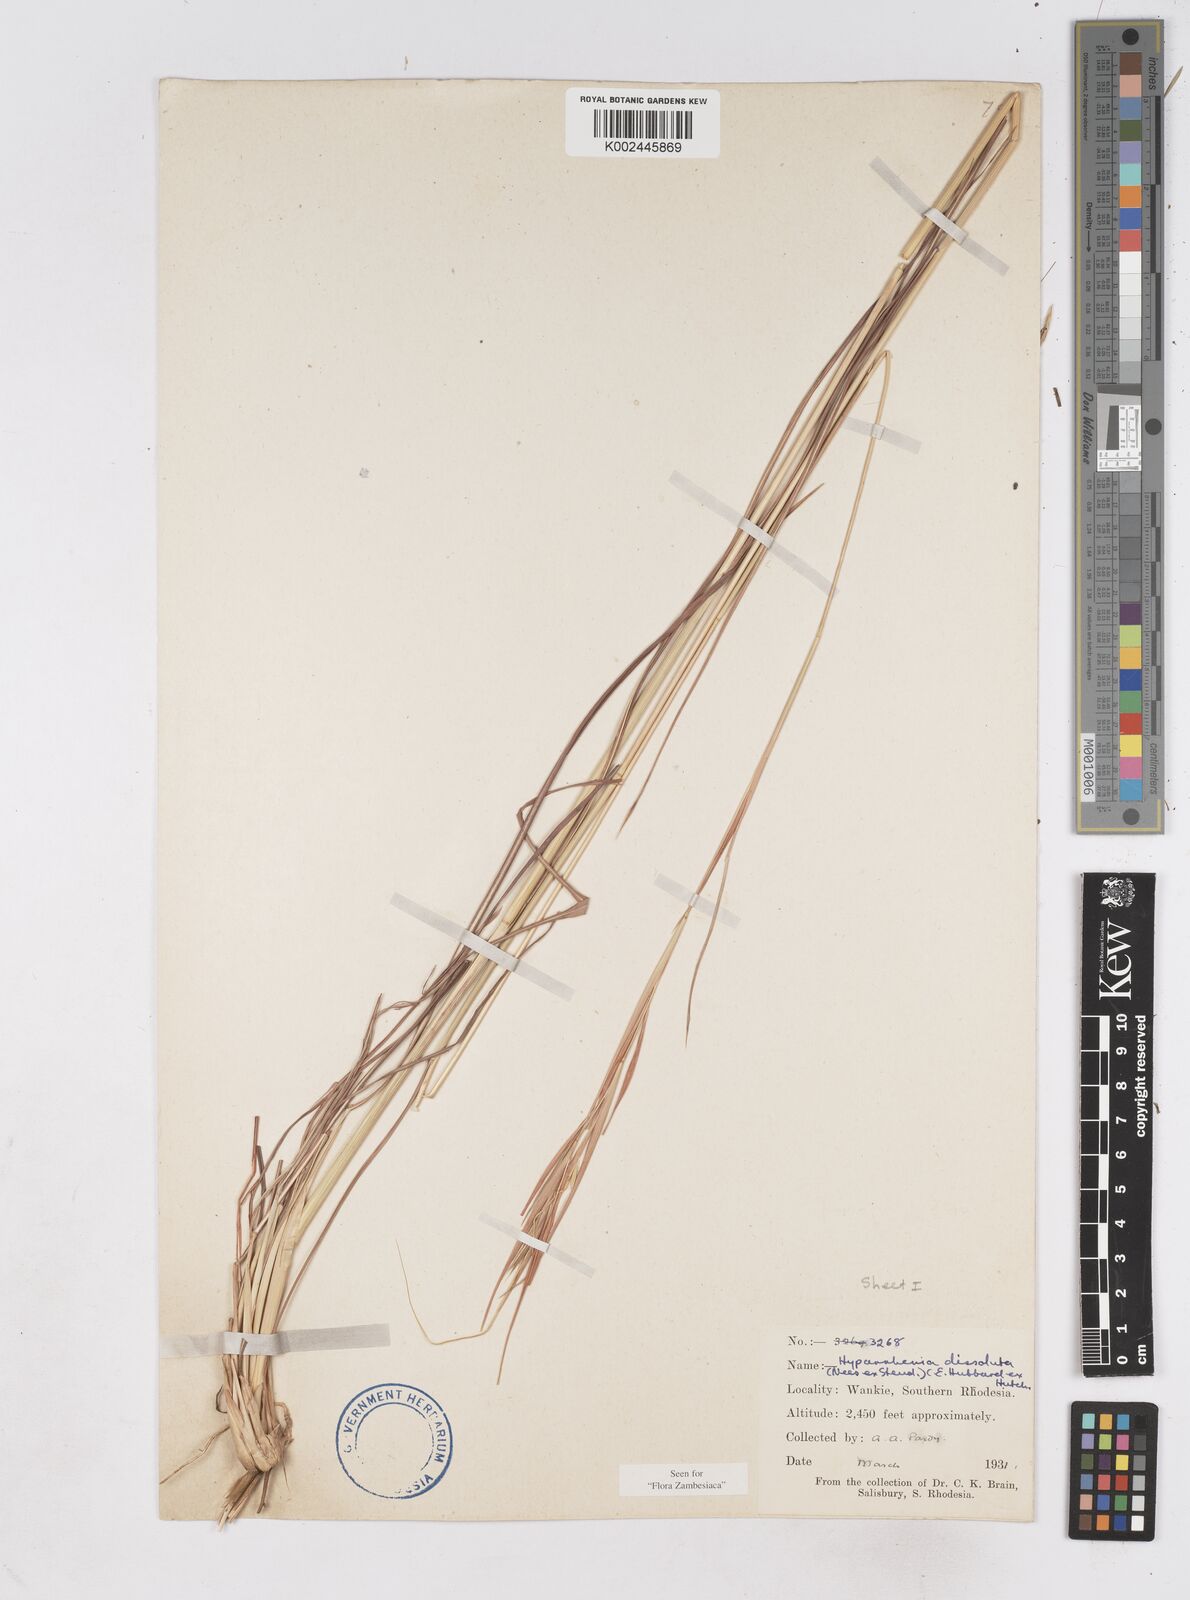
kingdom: Plantae
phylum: Tracheophyta
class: Liliopsida
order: Poales
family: Poaceae
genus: Hyperthelia
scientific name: Hyperthelia dissoluta
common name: Yellow thatching grass
